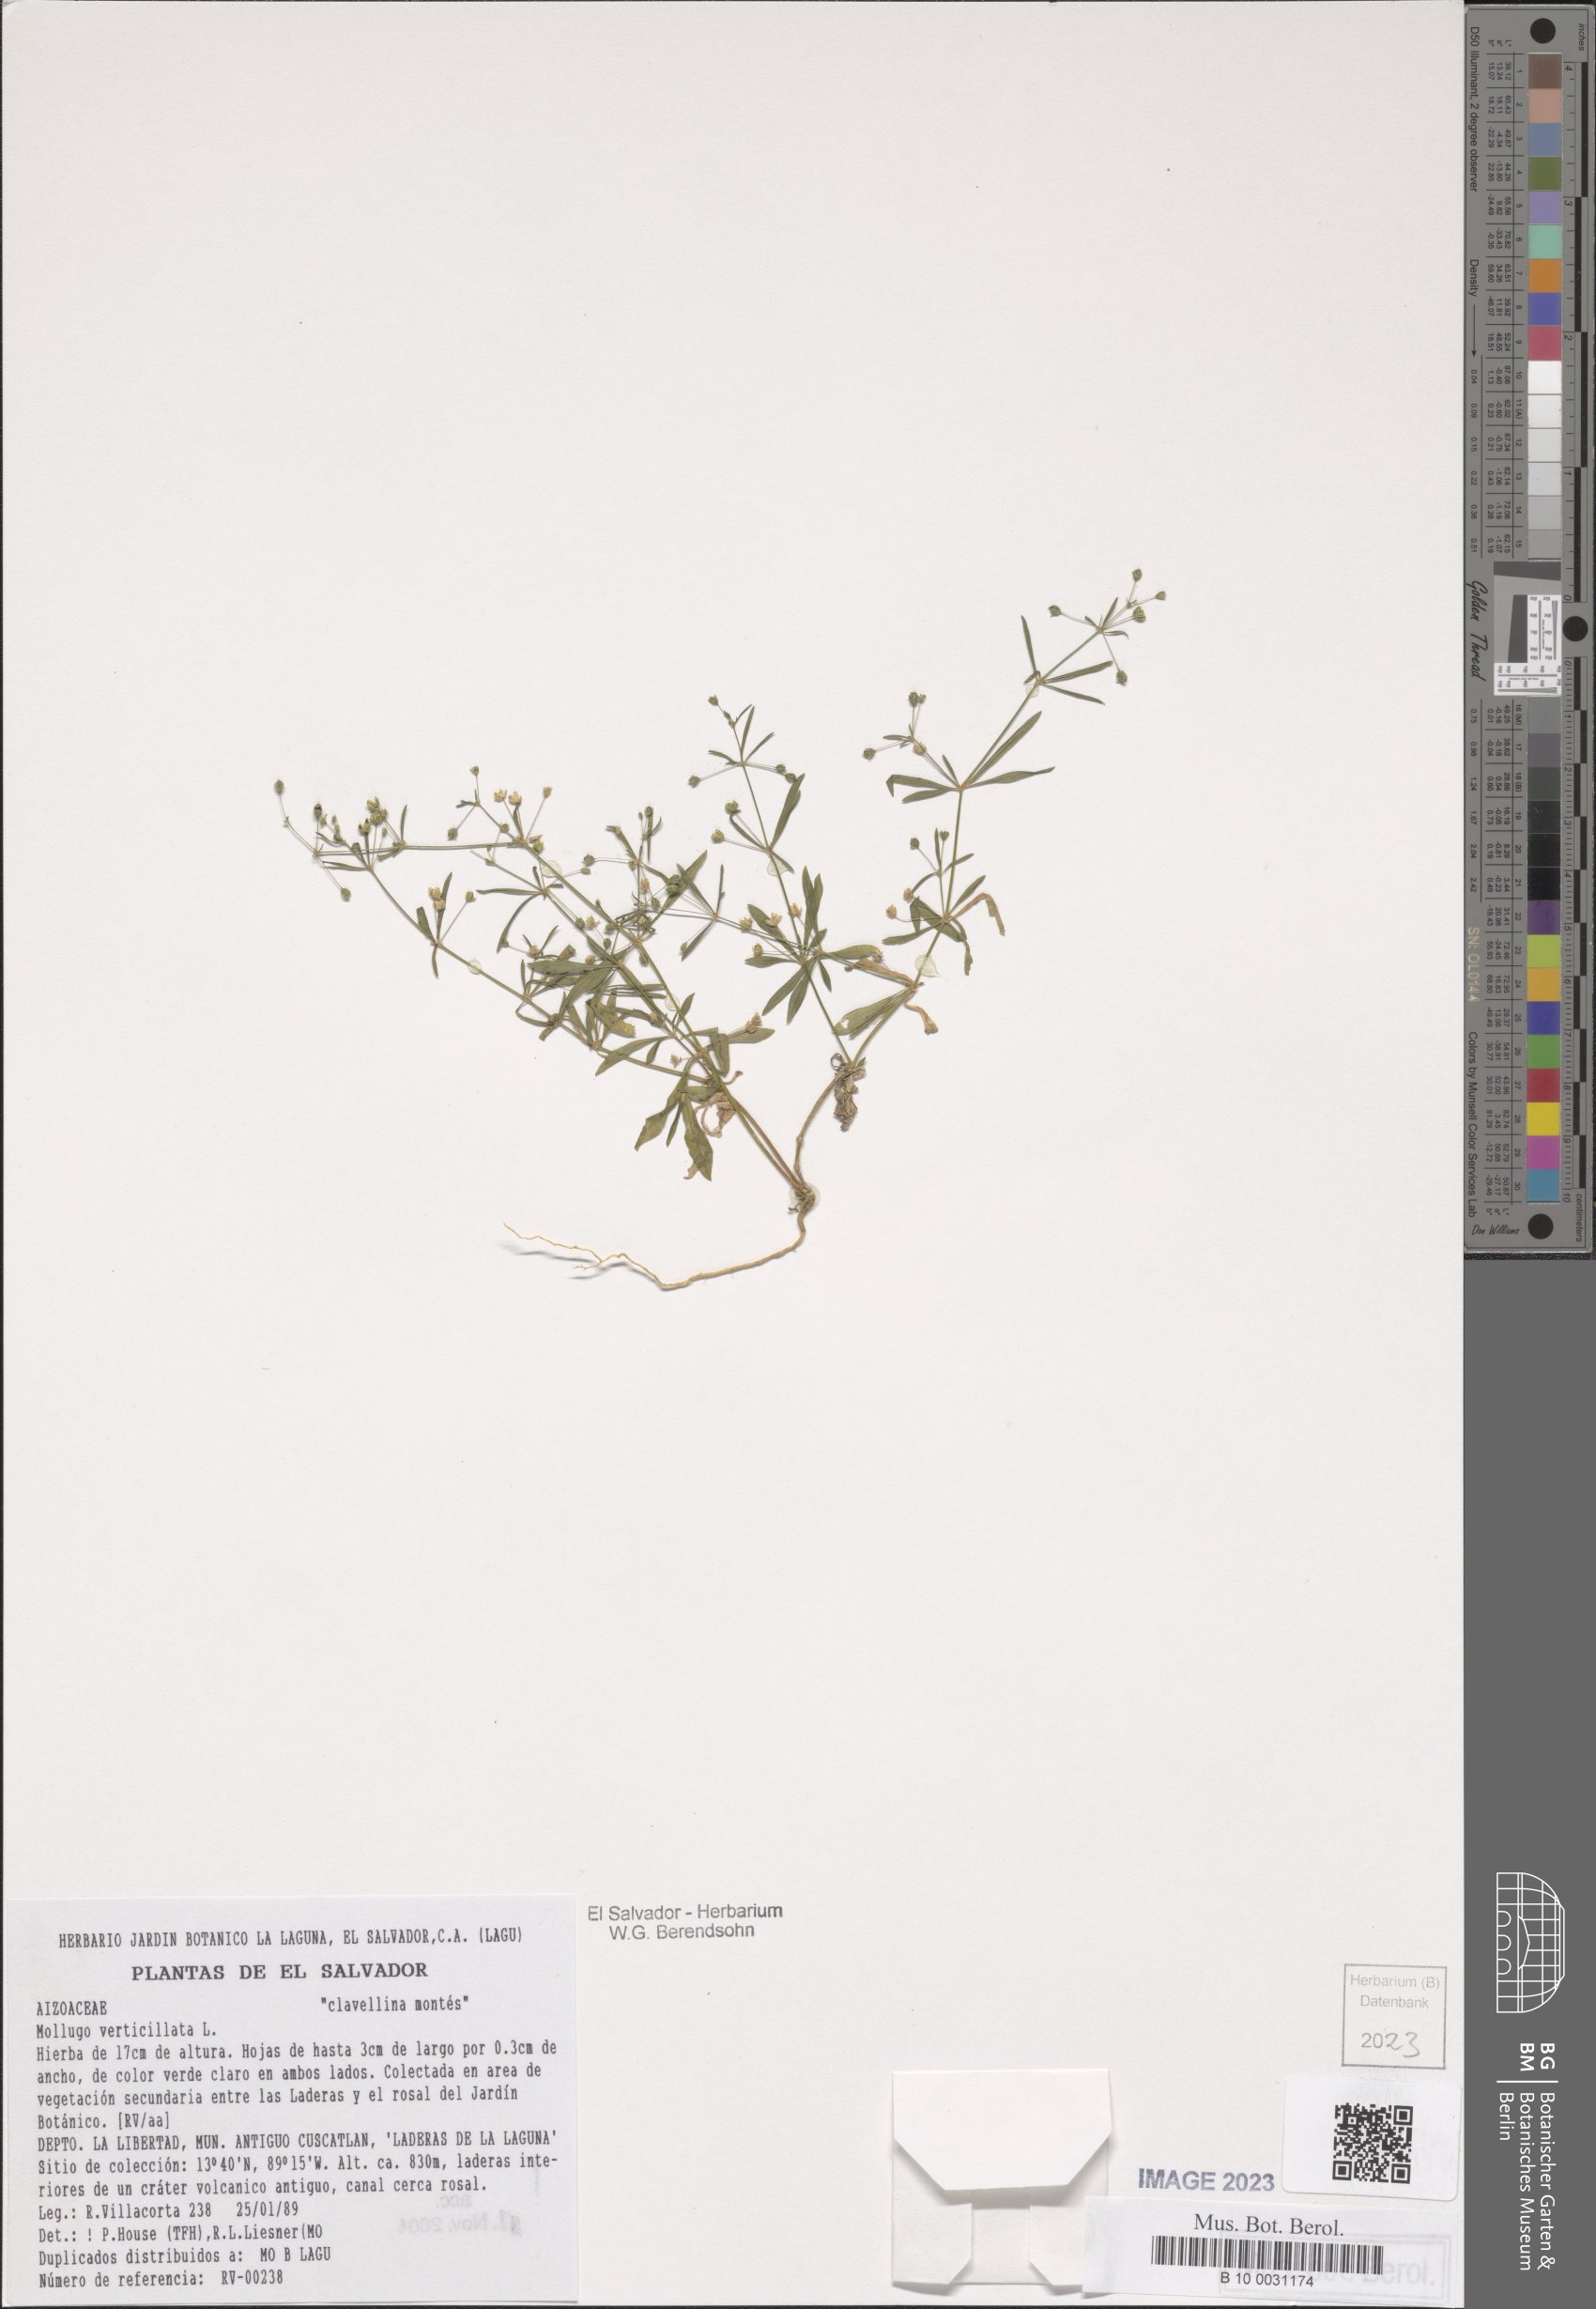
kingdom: Plantae
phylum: Tracheophyta
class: Magnoliopsida
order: Caryophyllales
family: Molluginaceae
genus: Mollugo
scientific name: Mollugo verticillata
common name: Green carpetweed
